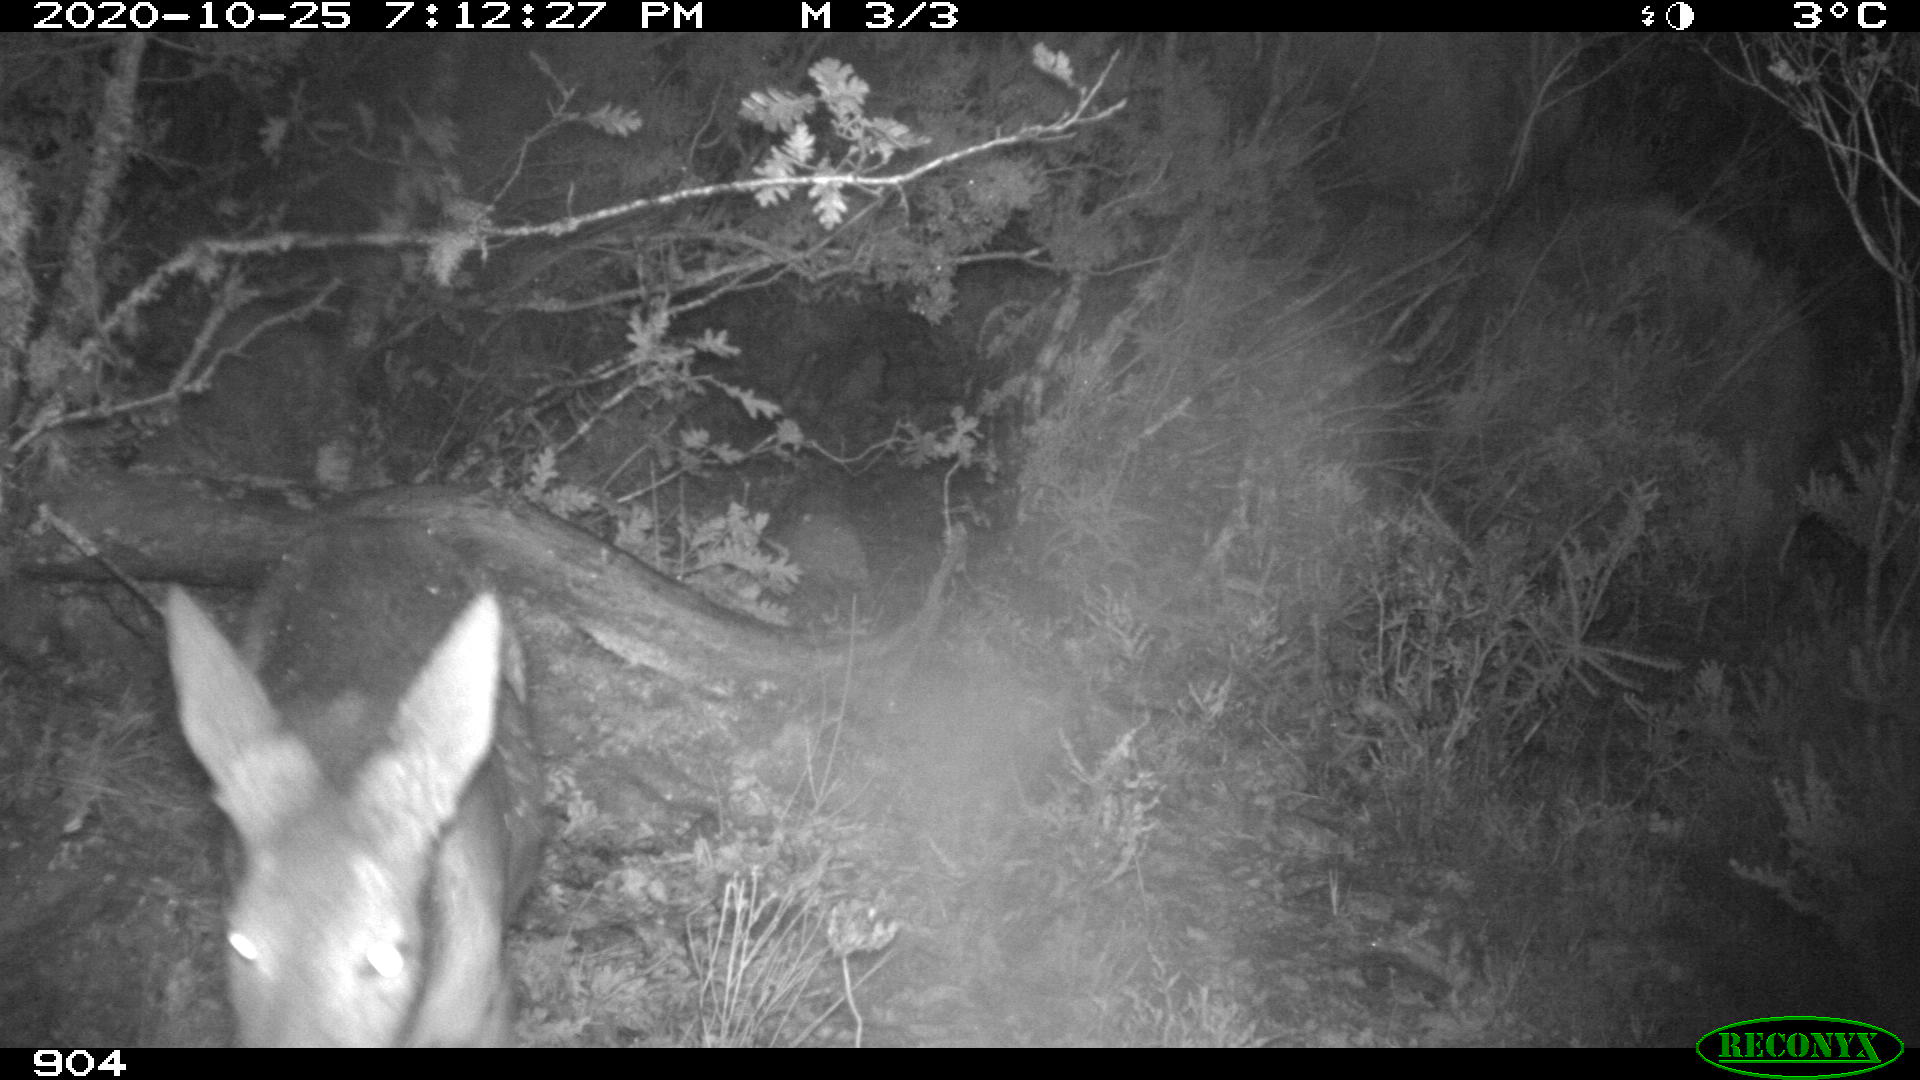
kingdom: Animalia
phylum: Chordata
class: Mammalia
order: Artiodactyla
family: Cervidae
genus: Capreolus
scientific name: Capreolus capreolus
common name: Western roe deer
